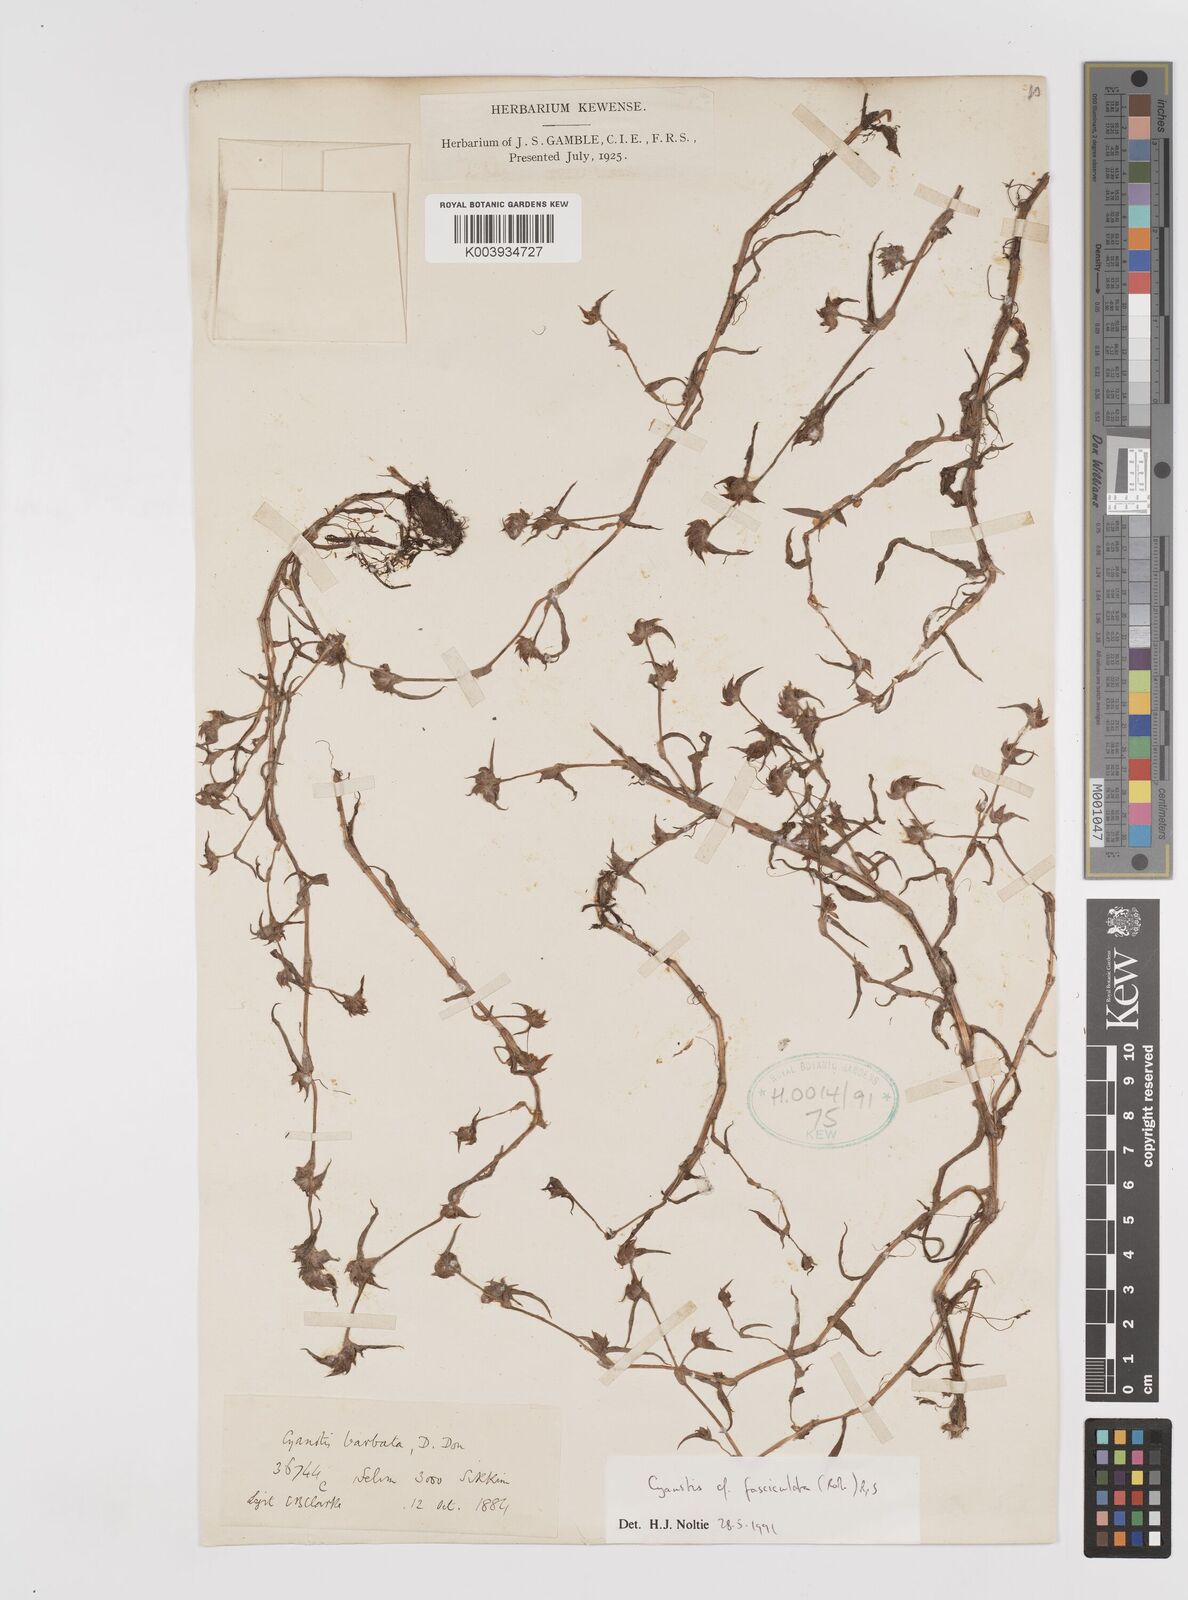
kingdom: Plantae
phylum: Tracheophyta
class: Liliopsida
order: Commelinales
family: Commelinaceae
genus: Cyanotis
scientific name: Cyanotis fasciculata
